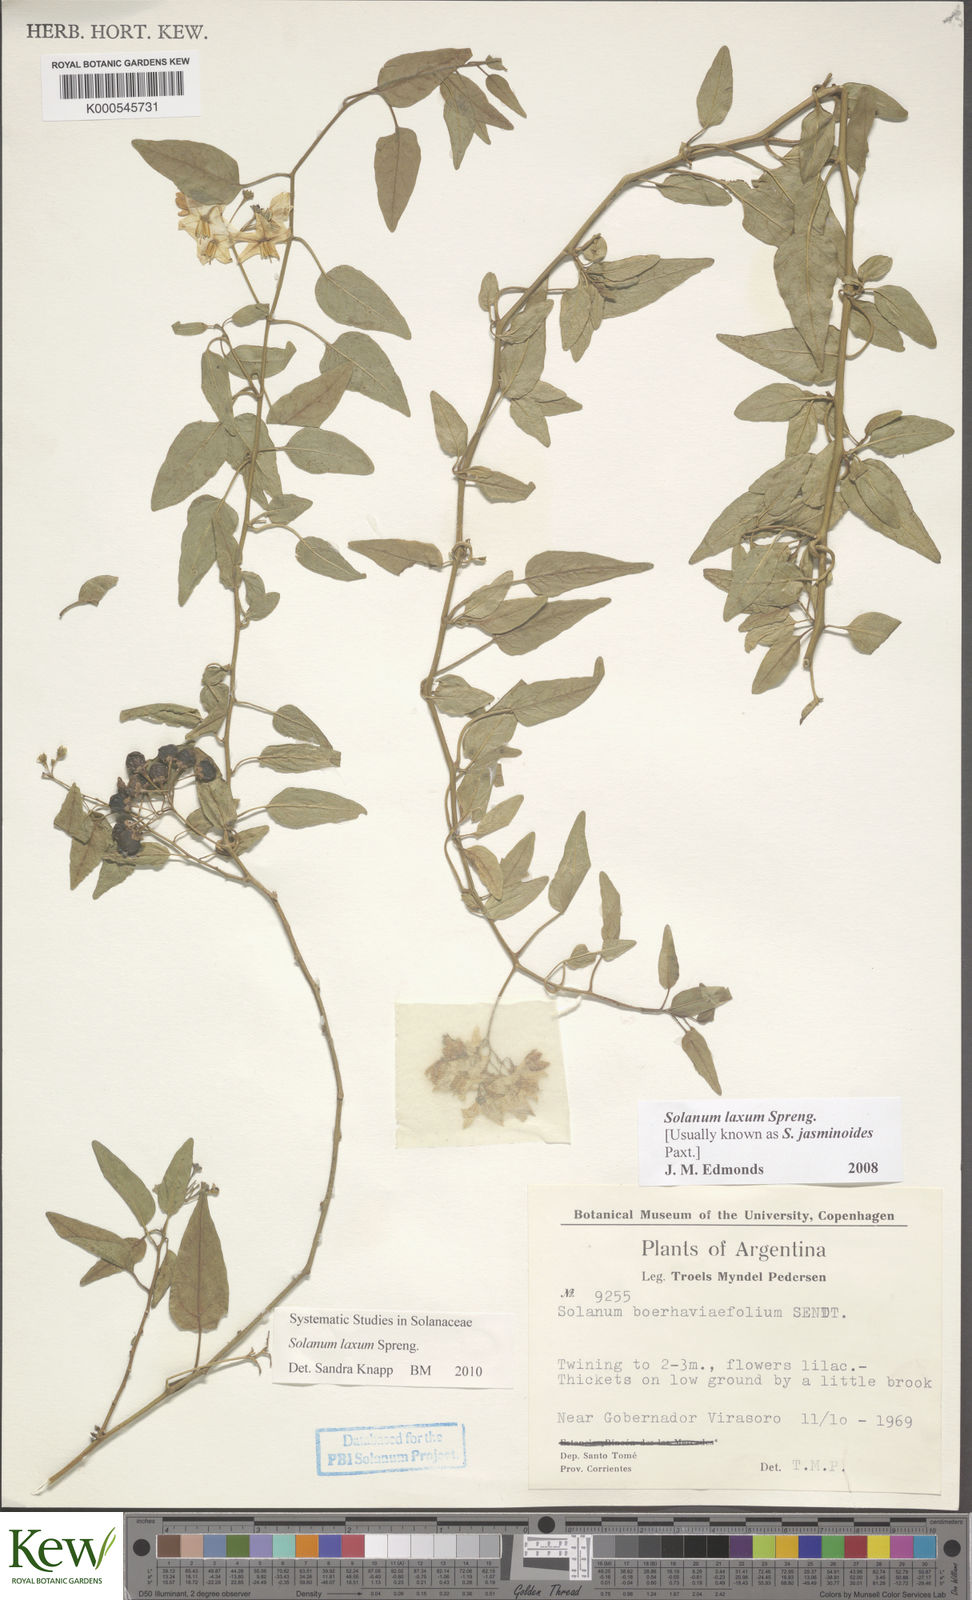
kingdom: Plantae
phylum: Tracheophyta
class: Magnoliopsida
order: Solanales
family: Solanaceae
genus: Solanum
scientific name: Solanum laxum
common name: Nightshade
